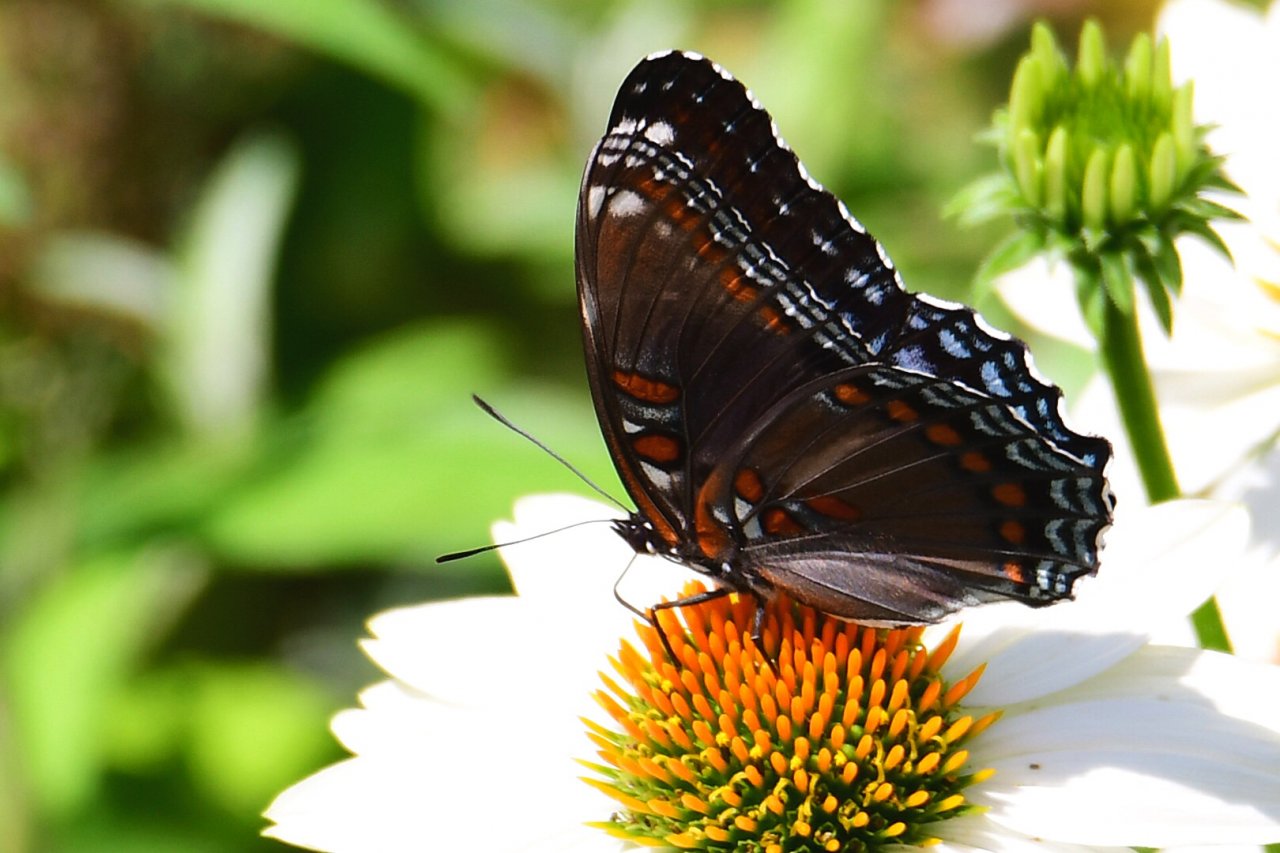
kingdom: Animalia
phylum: Arthropoda
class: Insecta
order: Lepidoptera
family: Nymphalidae
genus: Limenitis
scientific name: Limenitis astyanax
